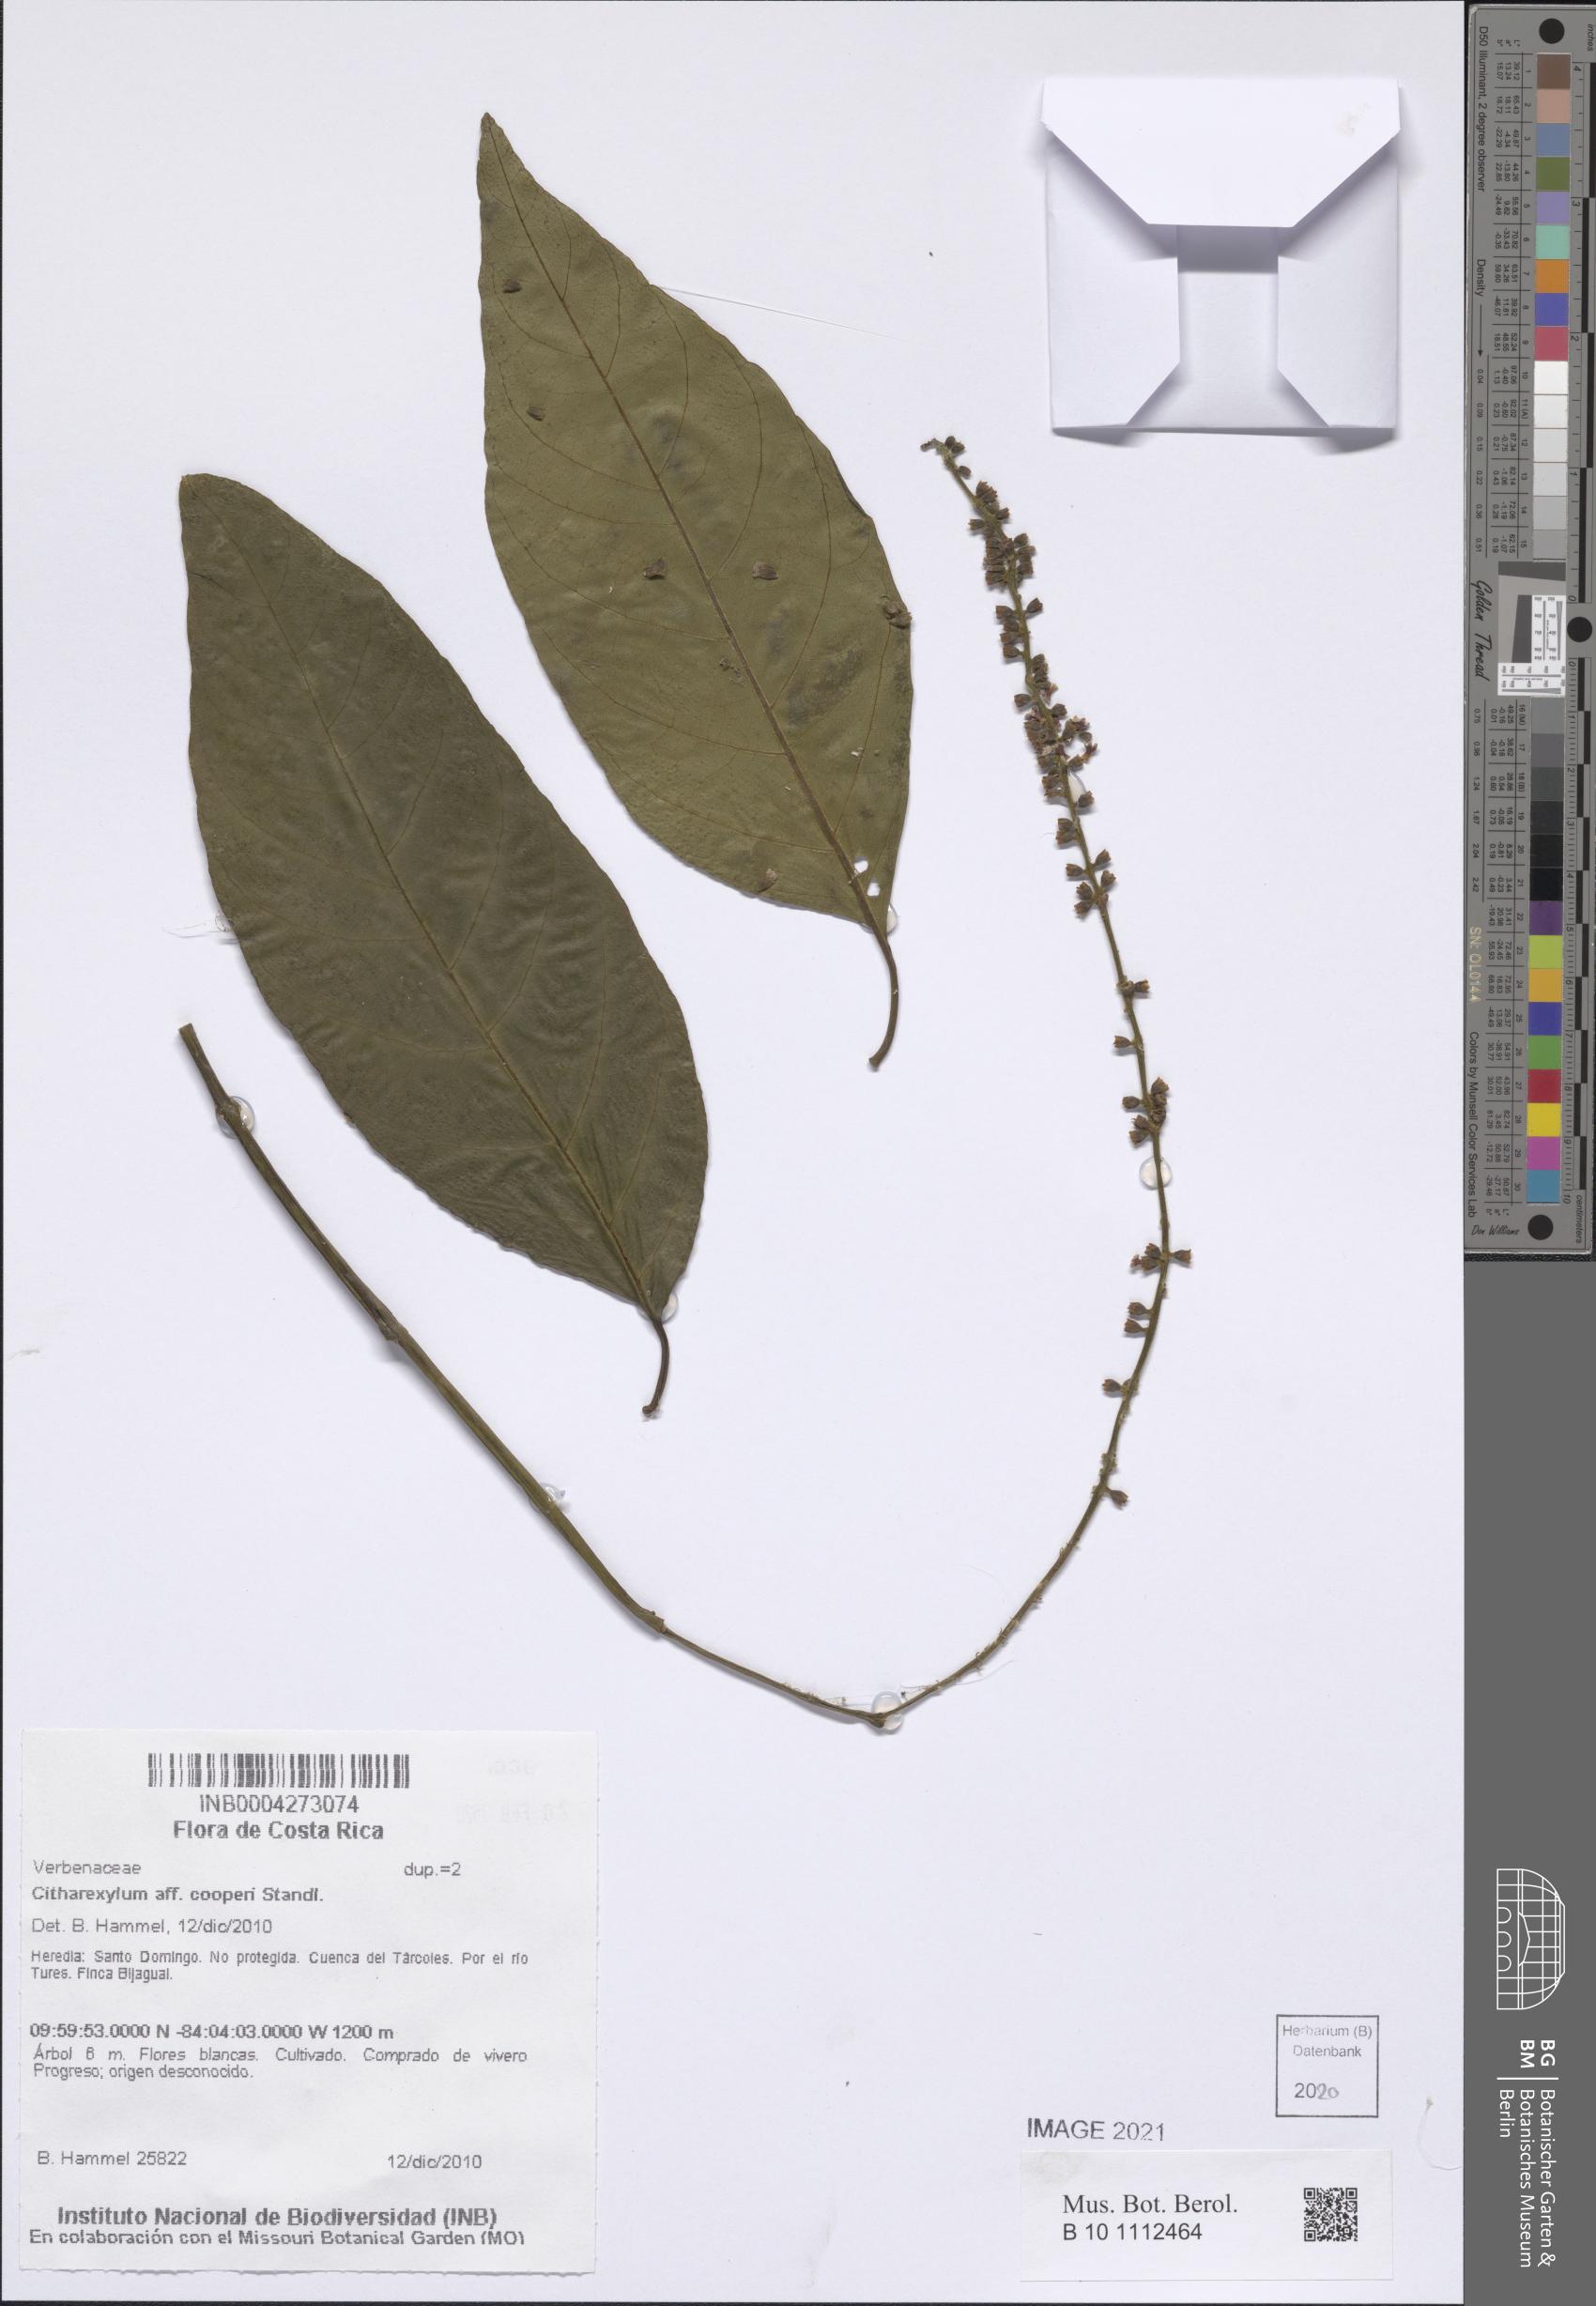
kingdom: Plantae
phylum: Tracheophyta
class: Magnoliopsida
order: Lamiales
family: Verbenaceae
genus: Citharexylum
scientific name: Citharexylum cooperi
